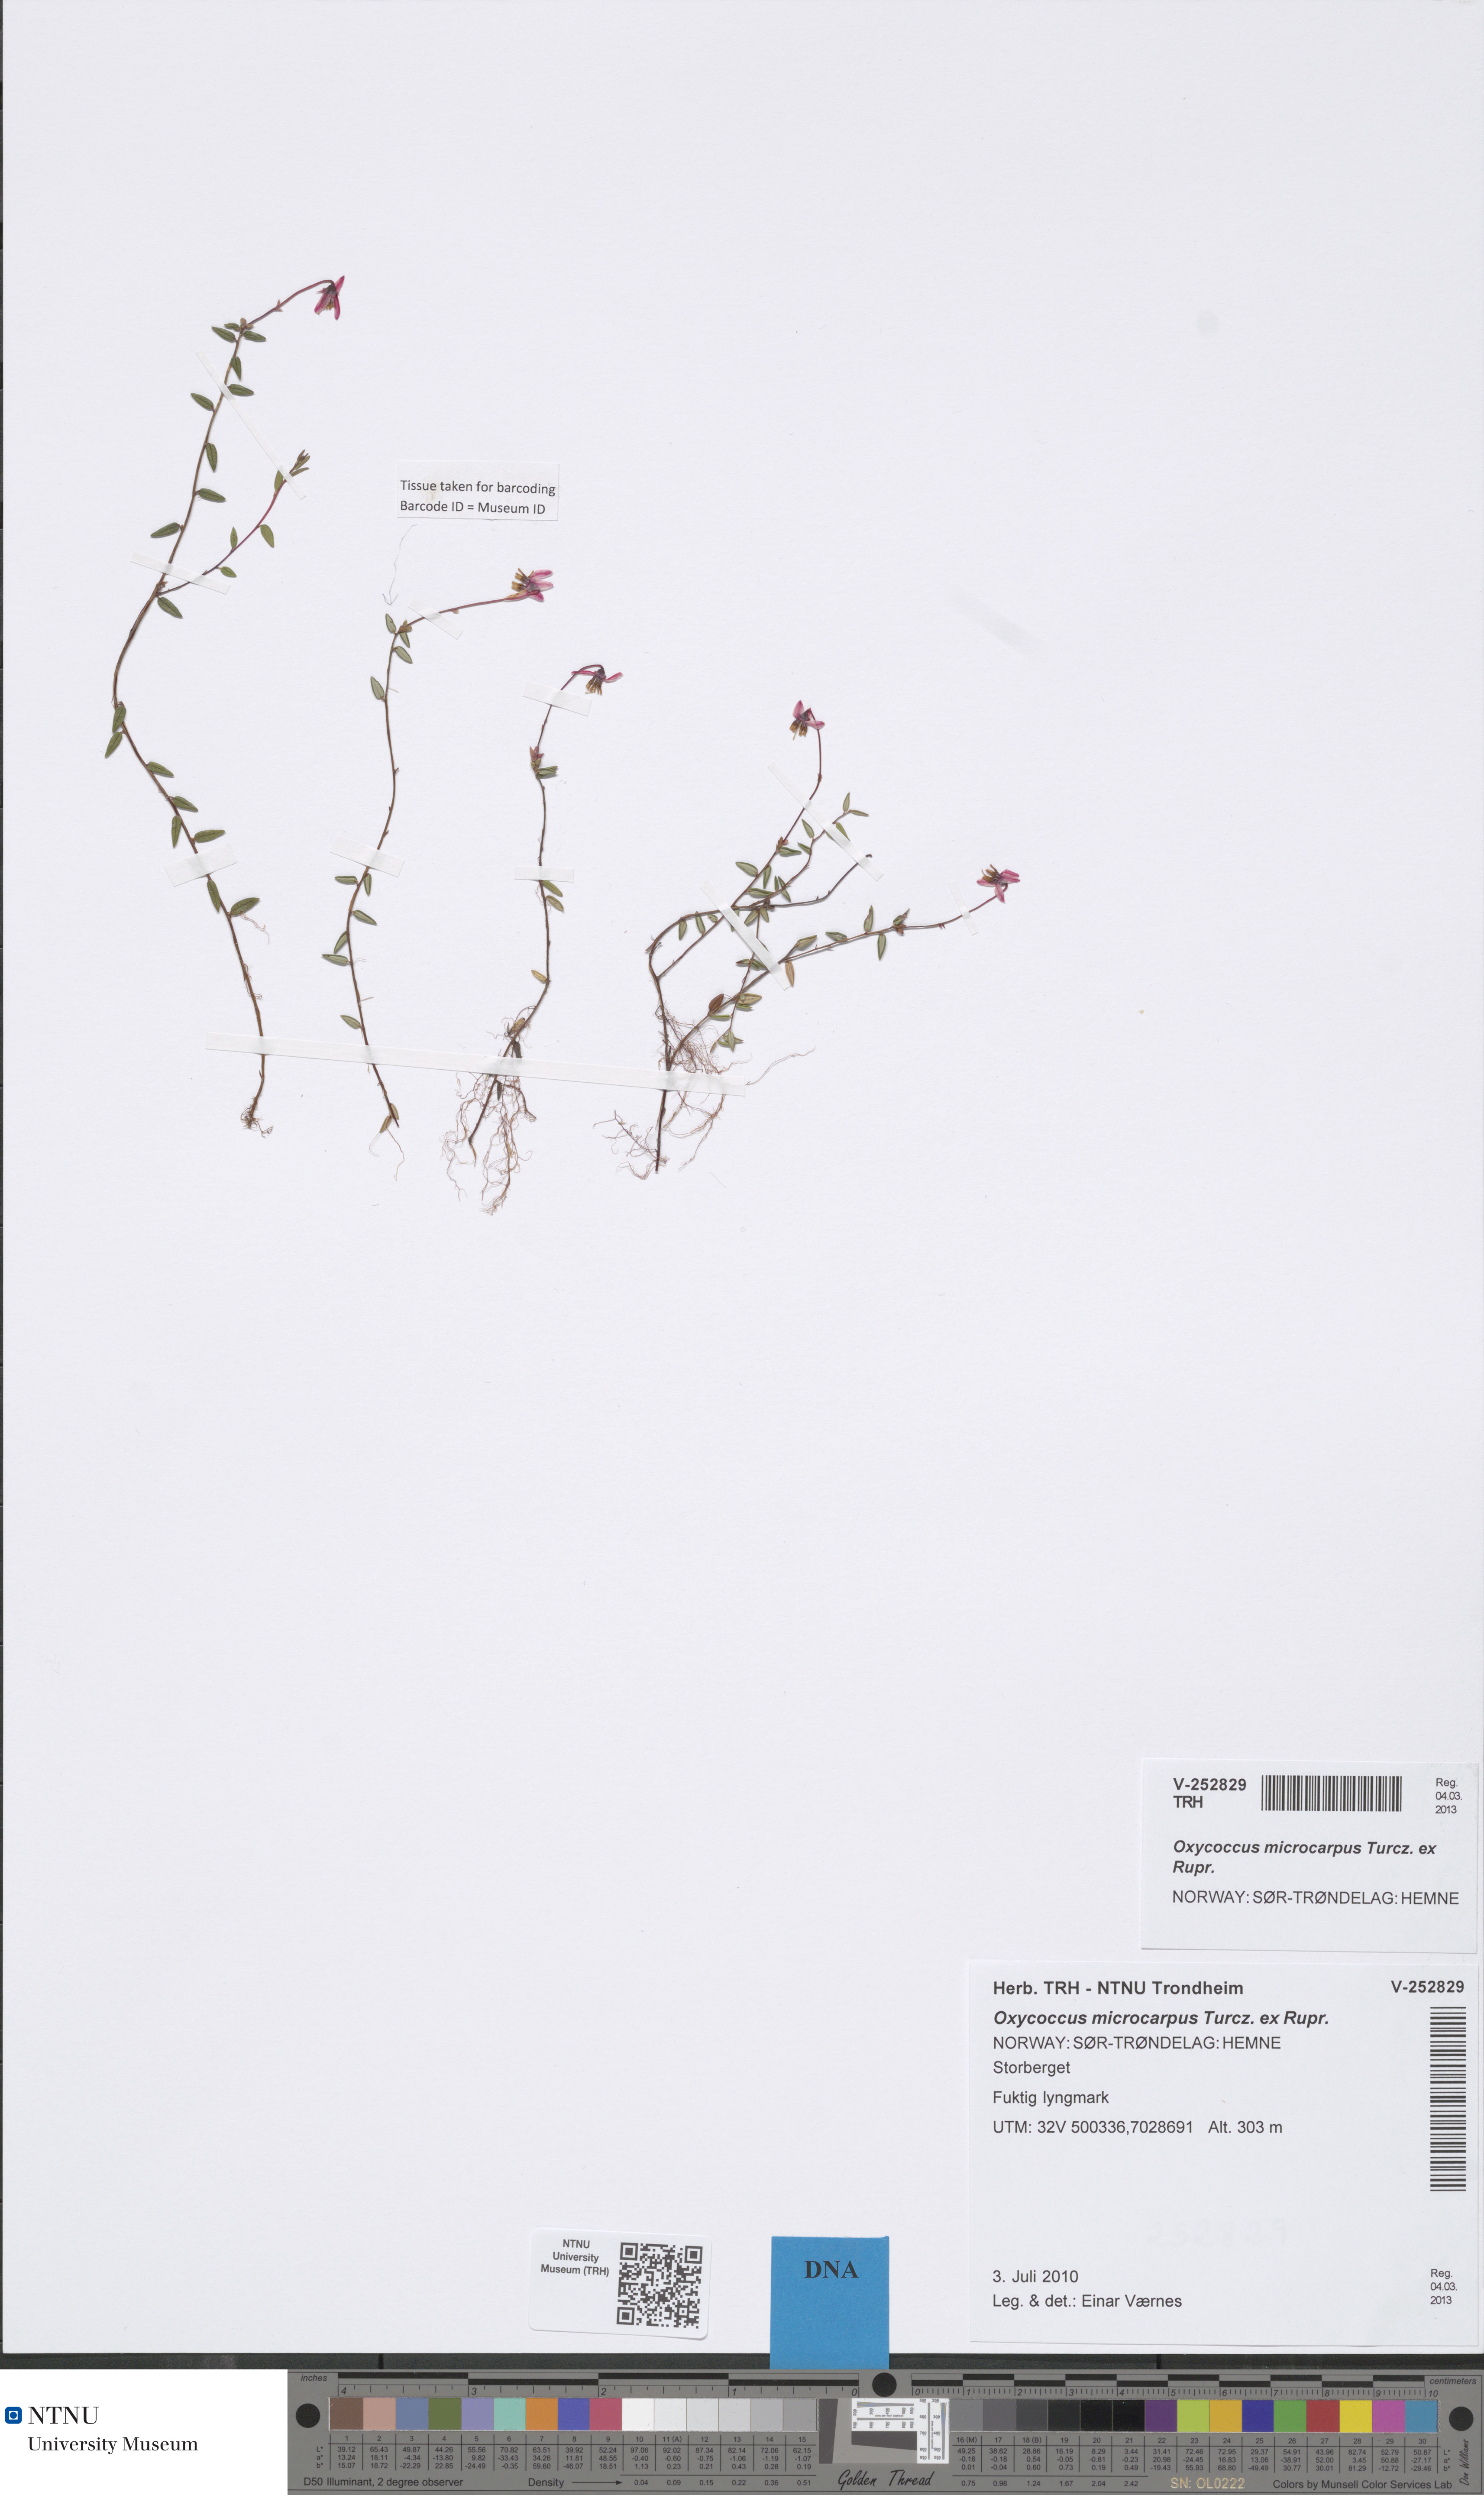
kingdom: Plantae
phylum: Tracheophyta
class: Magnoliopsida
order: Ericales
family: Ericaceae
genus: Vaccinium
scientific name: Vaccinium microcarpum
